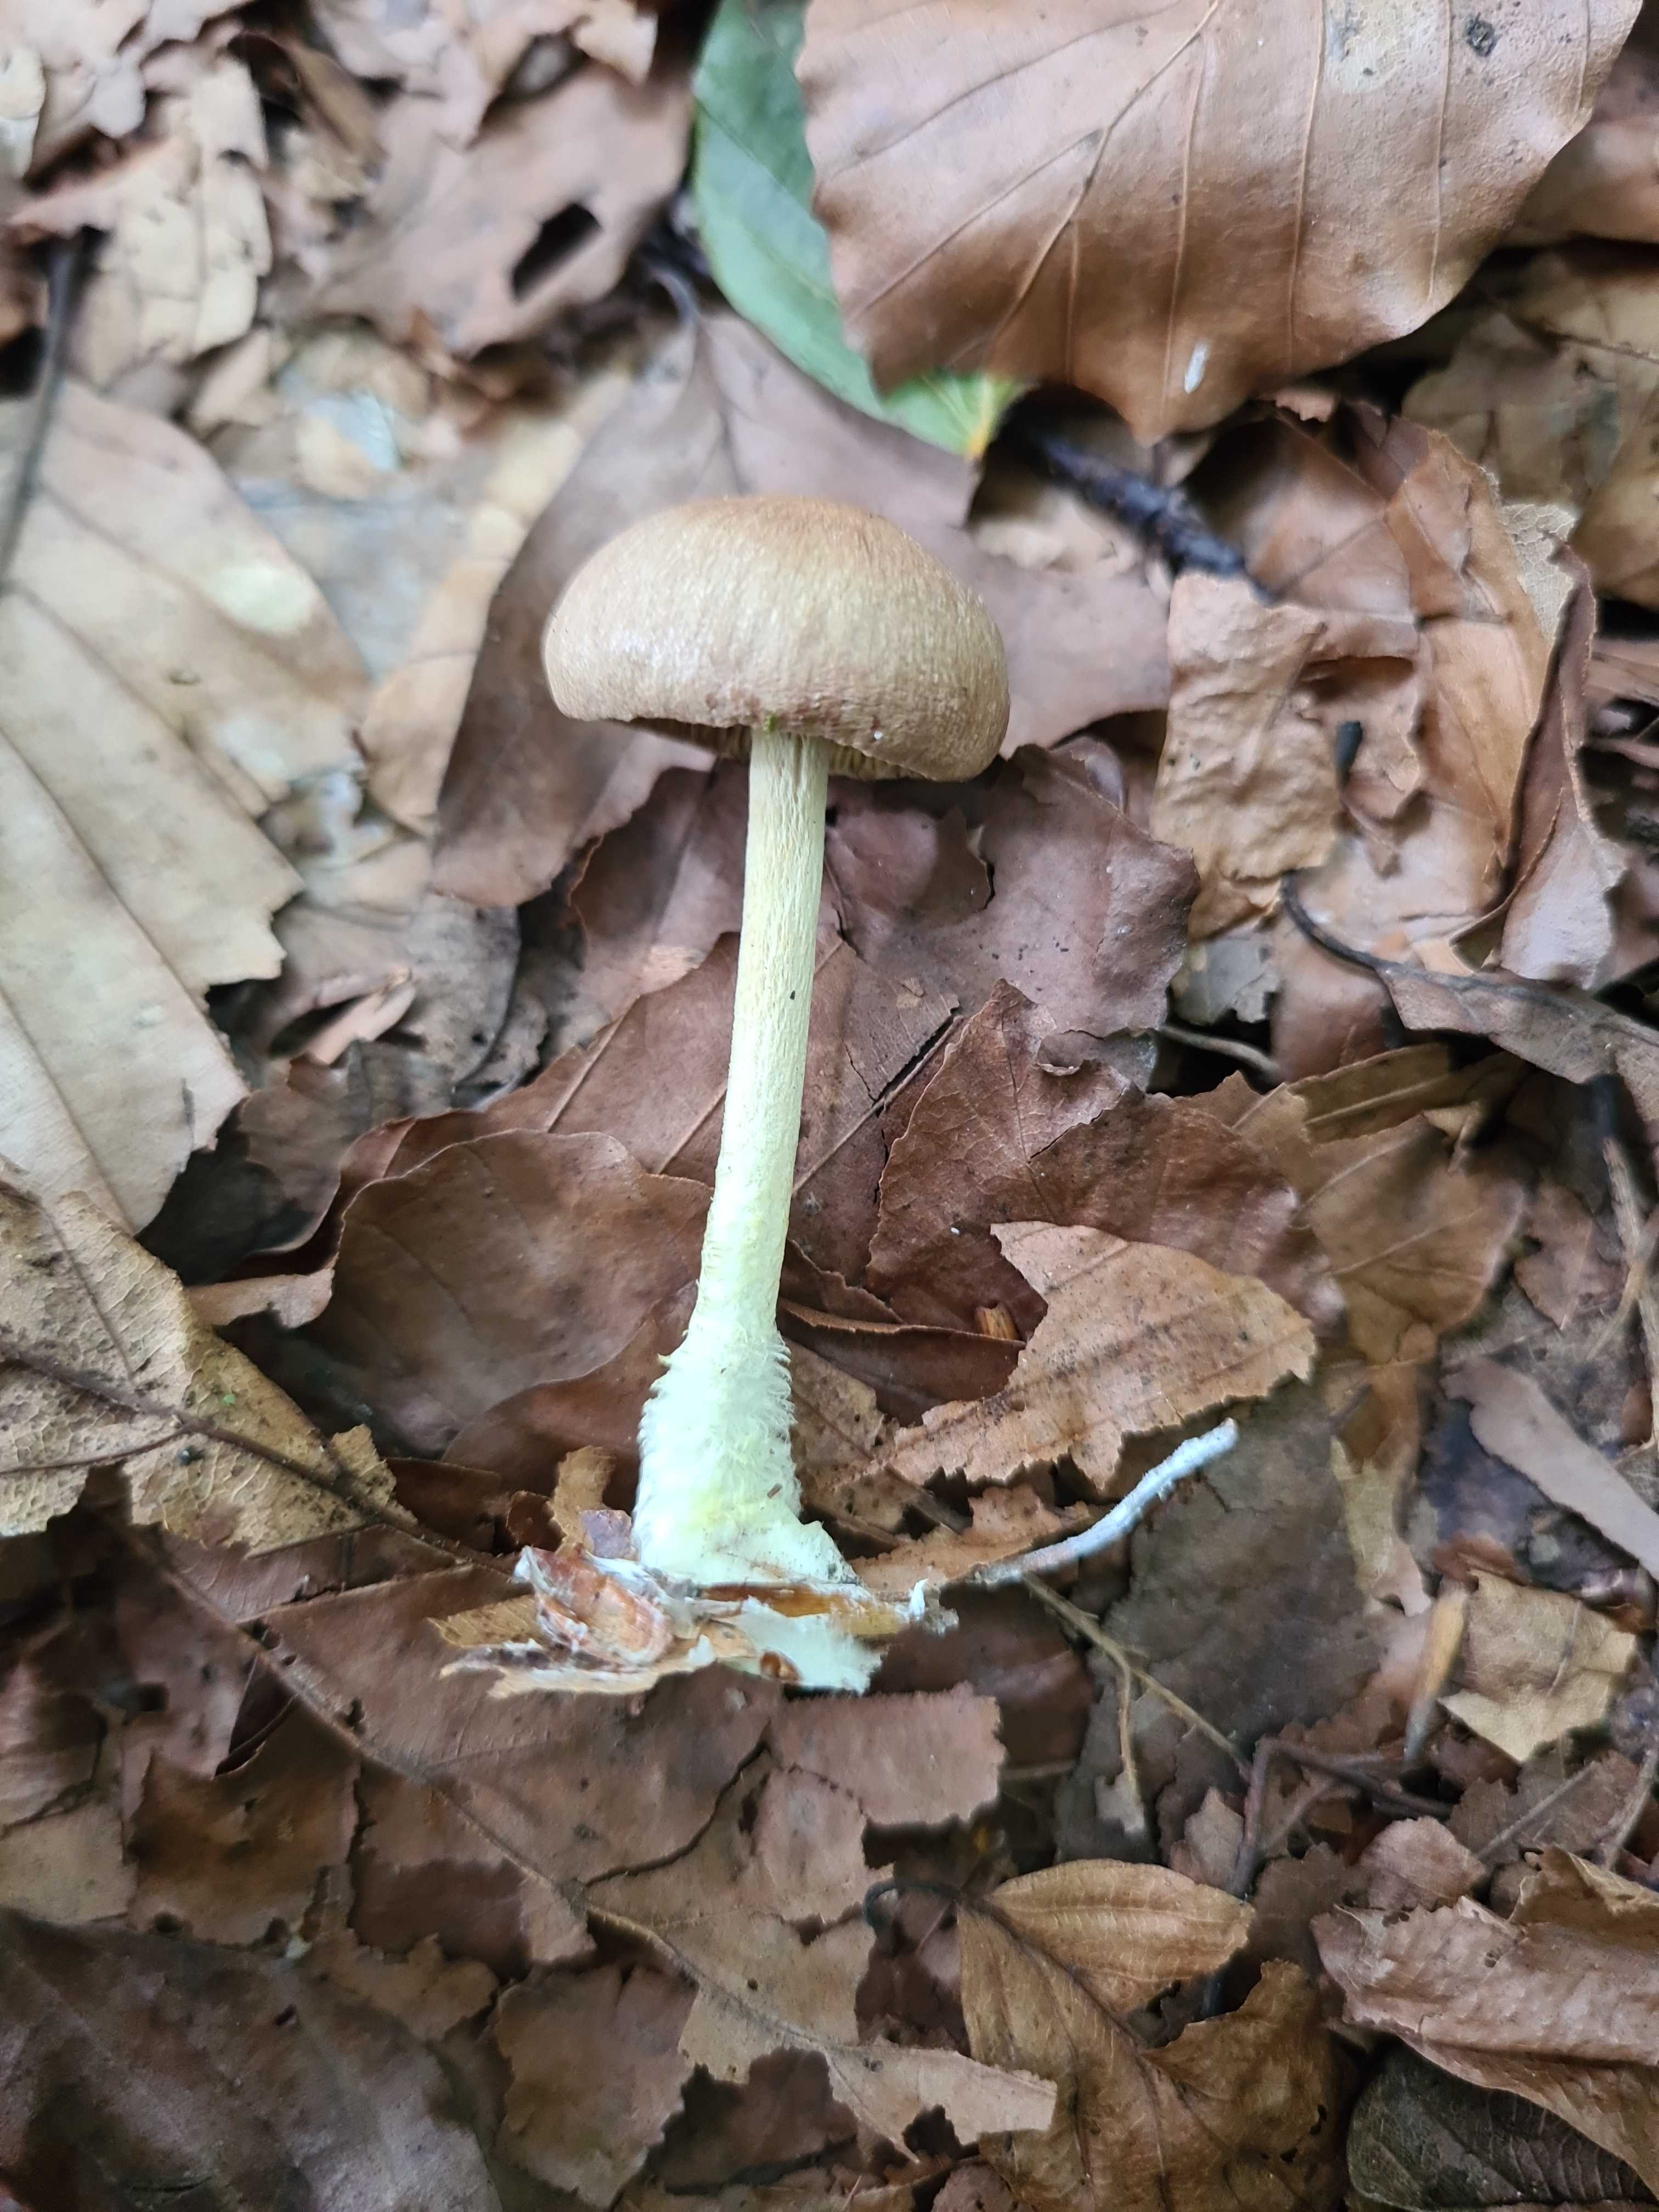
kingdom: Fungi
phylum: Basidiomycota
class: Agaricomycetes
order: Agaricales
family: Omphalotaceae
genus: Collybiopsis
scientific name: Collybiopsis peronata
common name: bestøvlet fladhat
